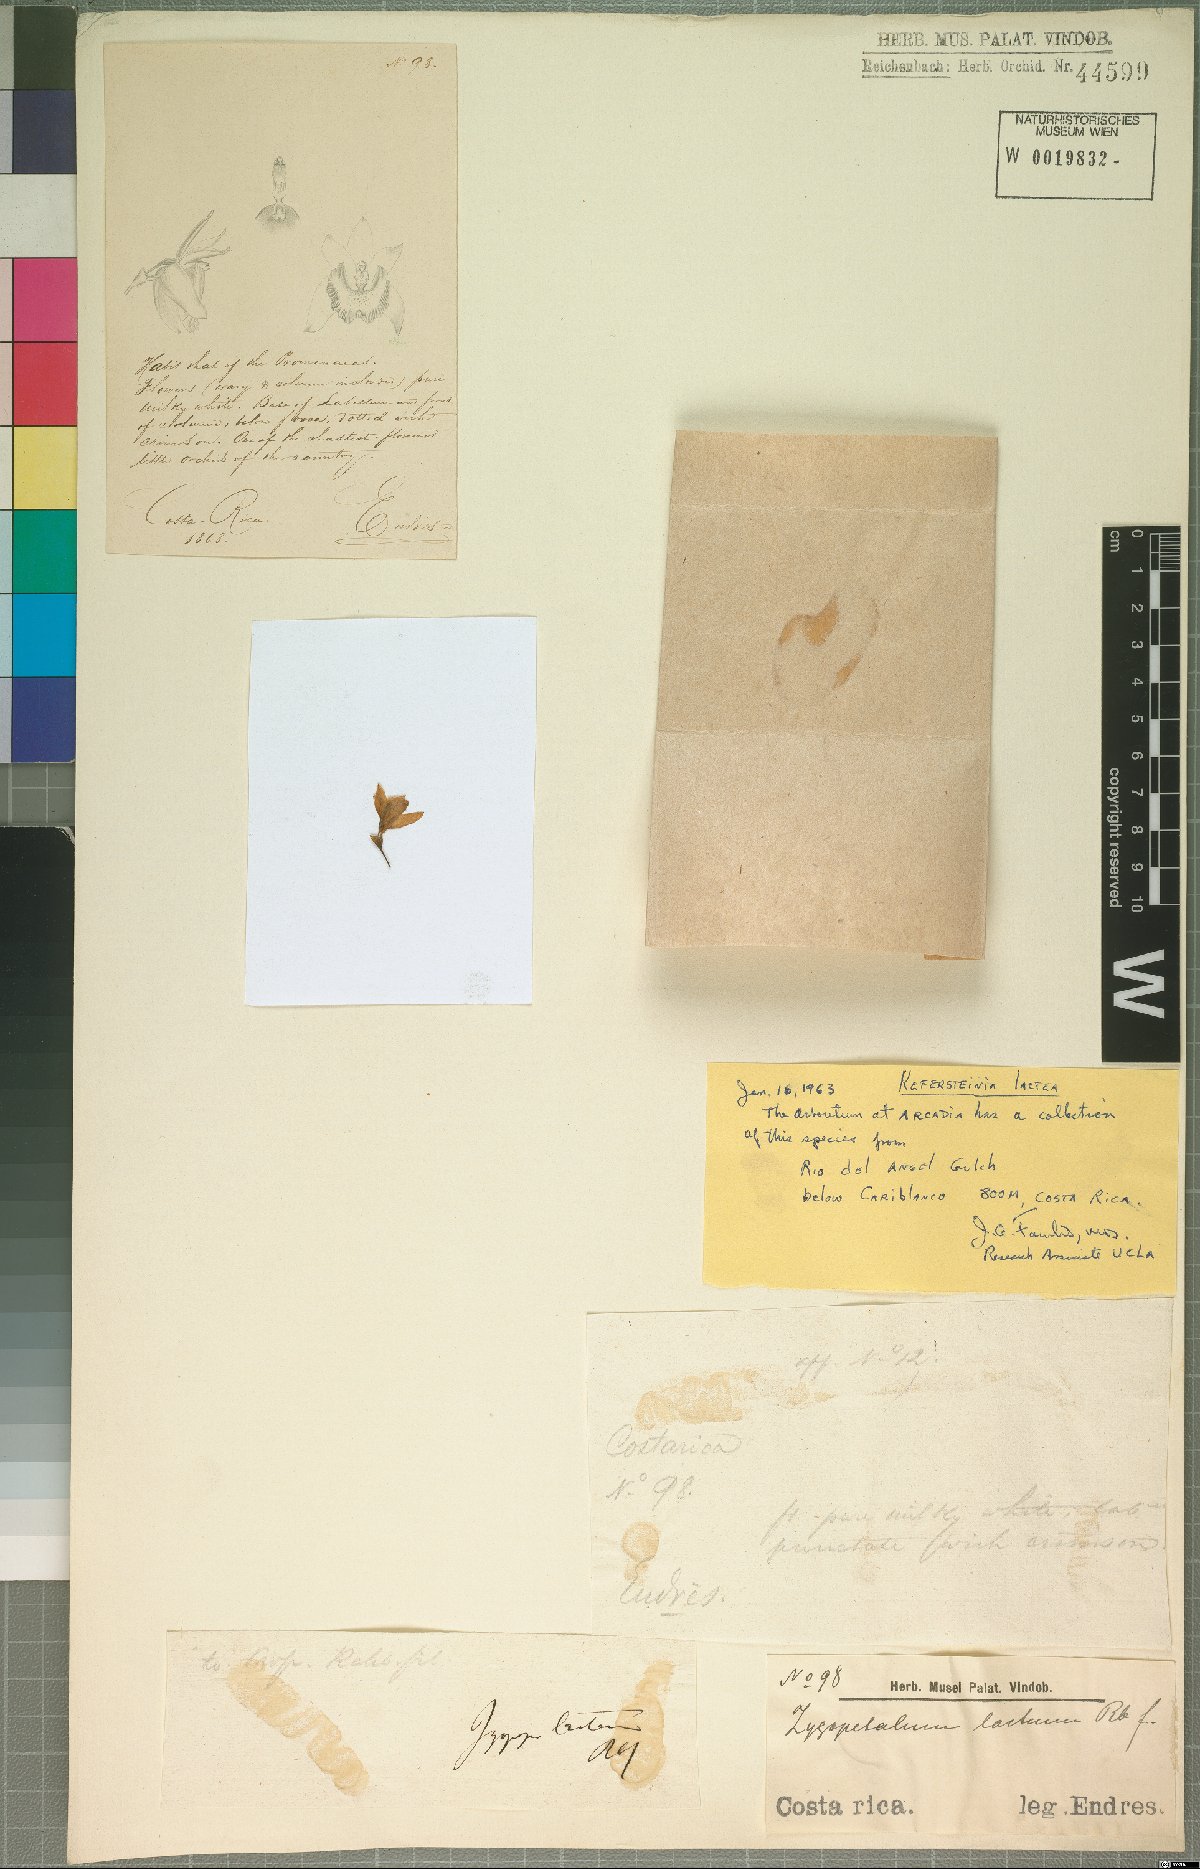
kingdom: Plantae
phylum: Tracheophyta
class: Liliopsida
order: Asparagales
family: Orchidaceae
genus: Kefersteinia
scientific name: Kefersteinia lactea
